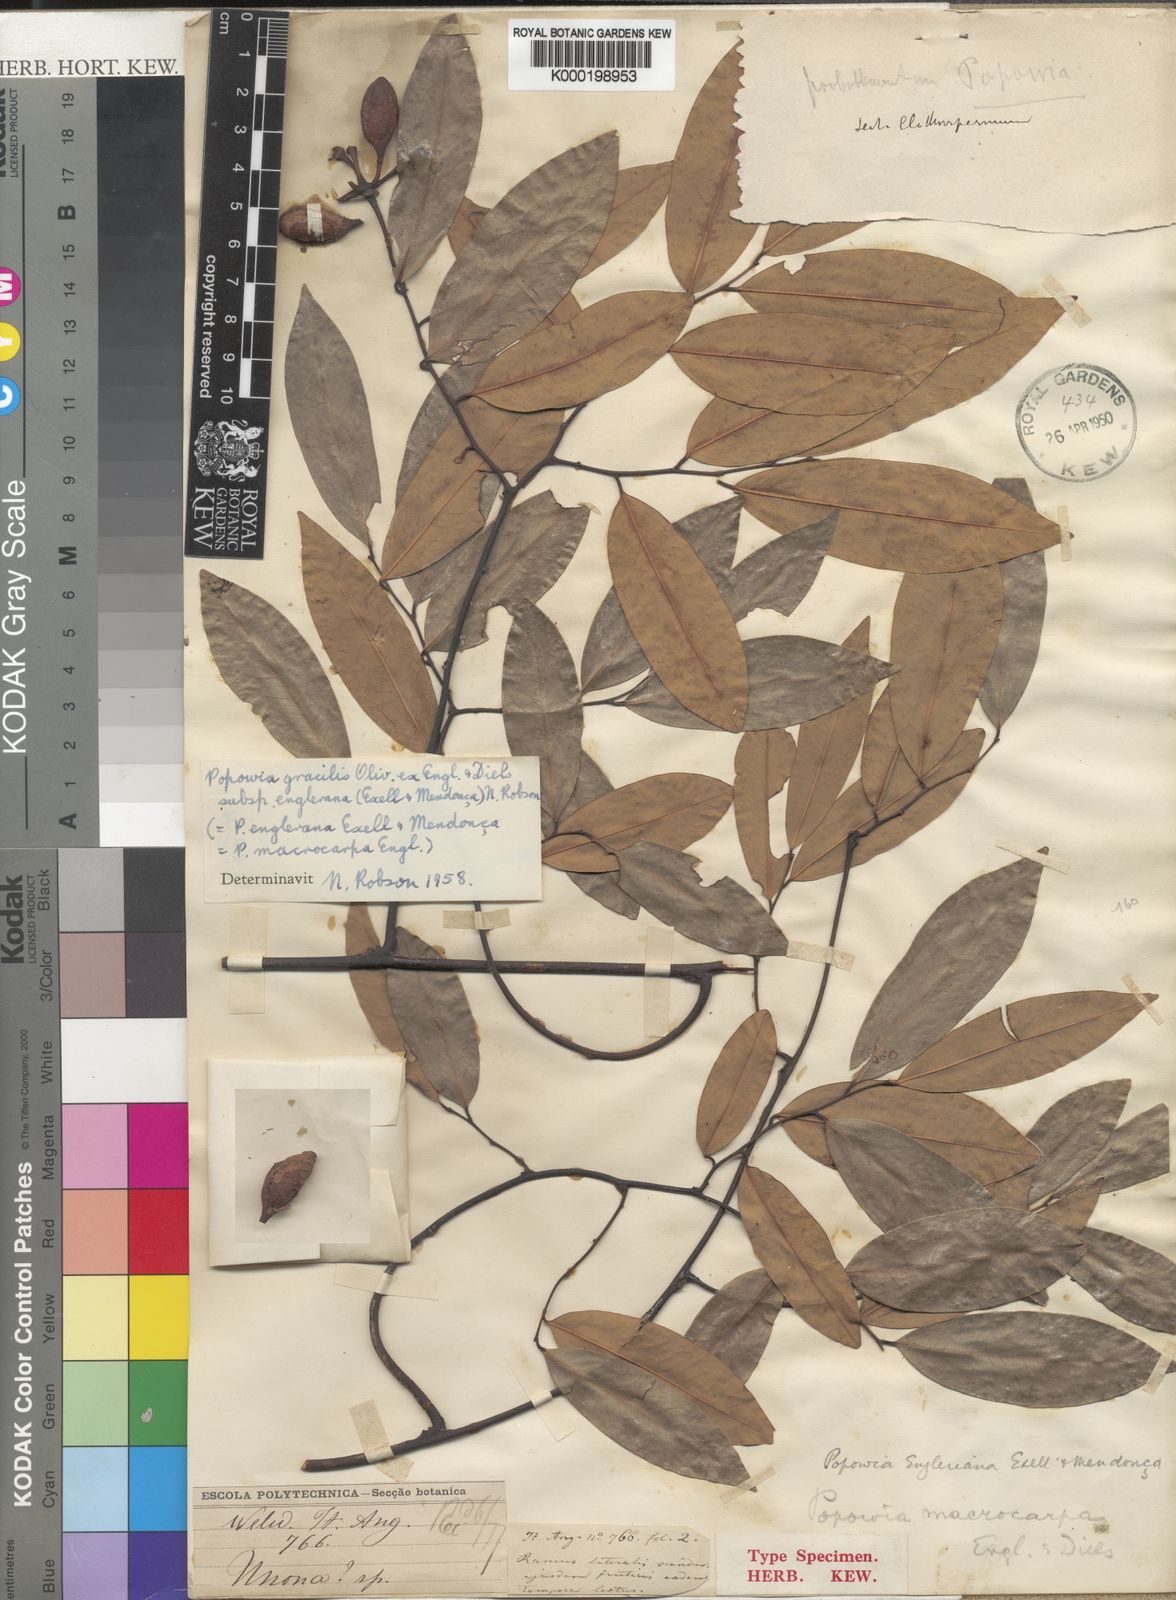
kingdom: Plantae
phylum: Tracheophyta
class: Magnoliopsida
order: Magnoliales
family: Annonaceae
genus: Sphaerocoryne
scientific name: Sphaerocoryne gracilis
